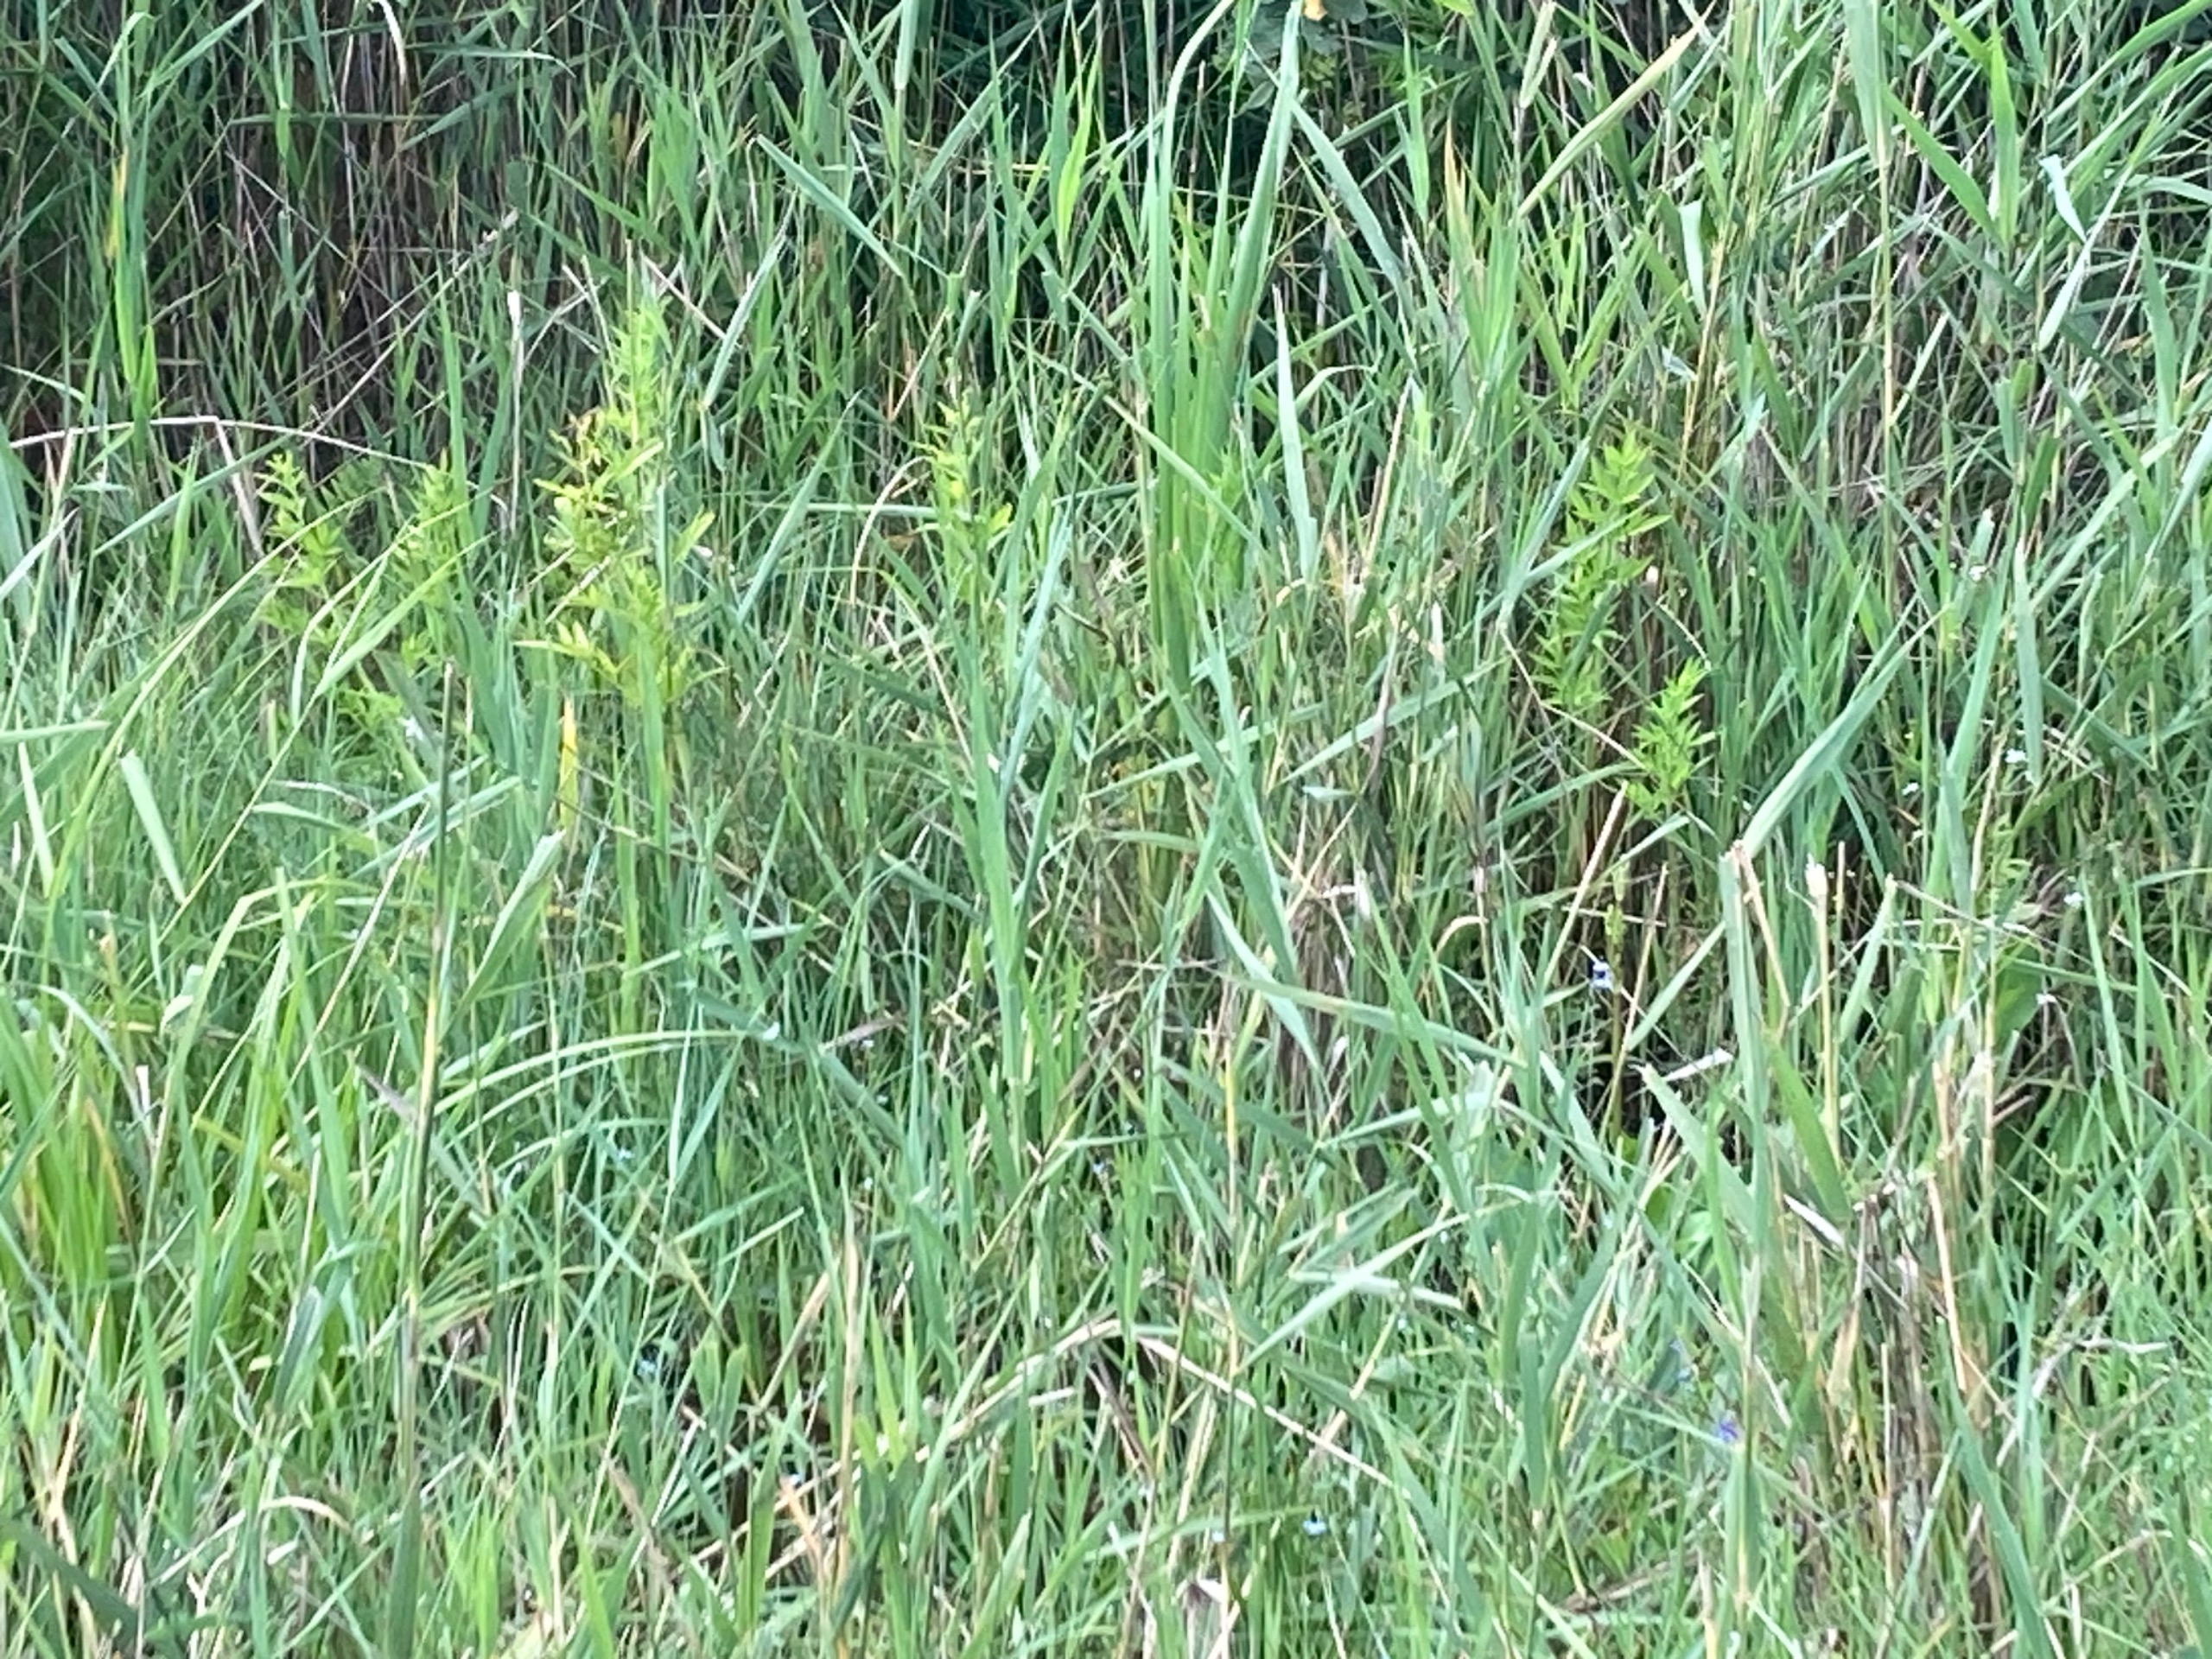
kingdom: Plantae
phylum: Tracheophyta
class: Magnoliopsida
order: Apiales
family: Apiaceae
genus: Cicuta
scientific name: Cicuta virosa
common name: Gifttyde
